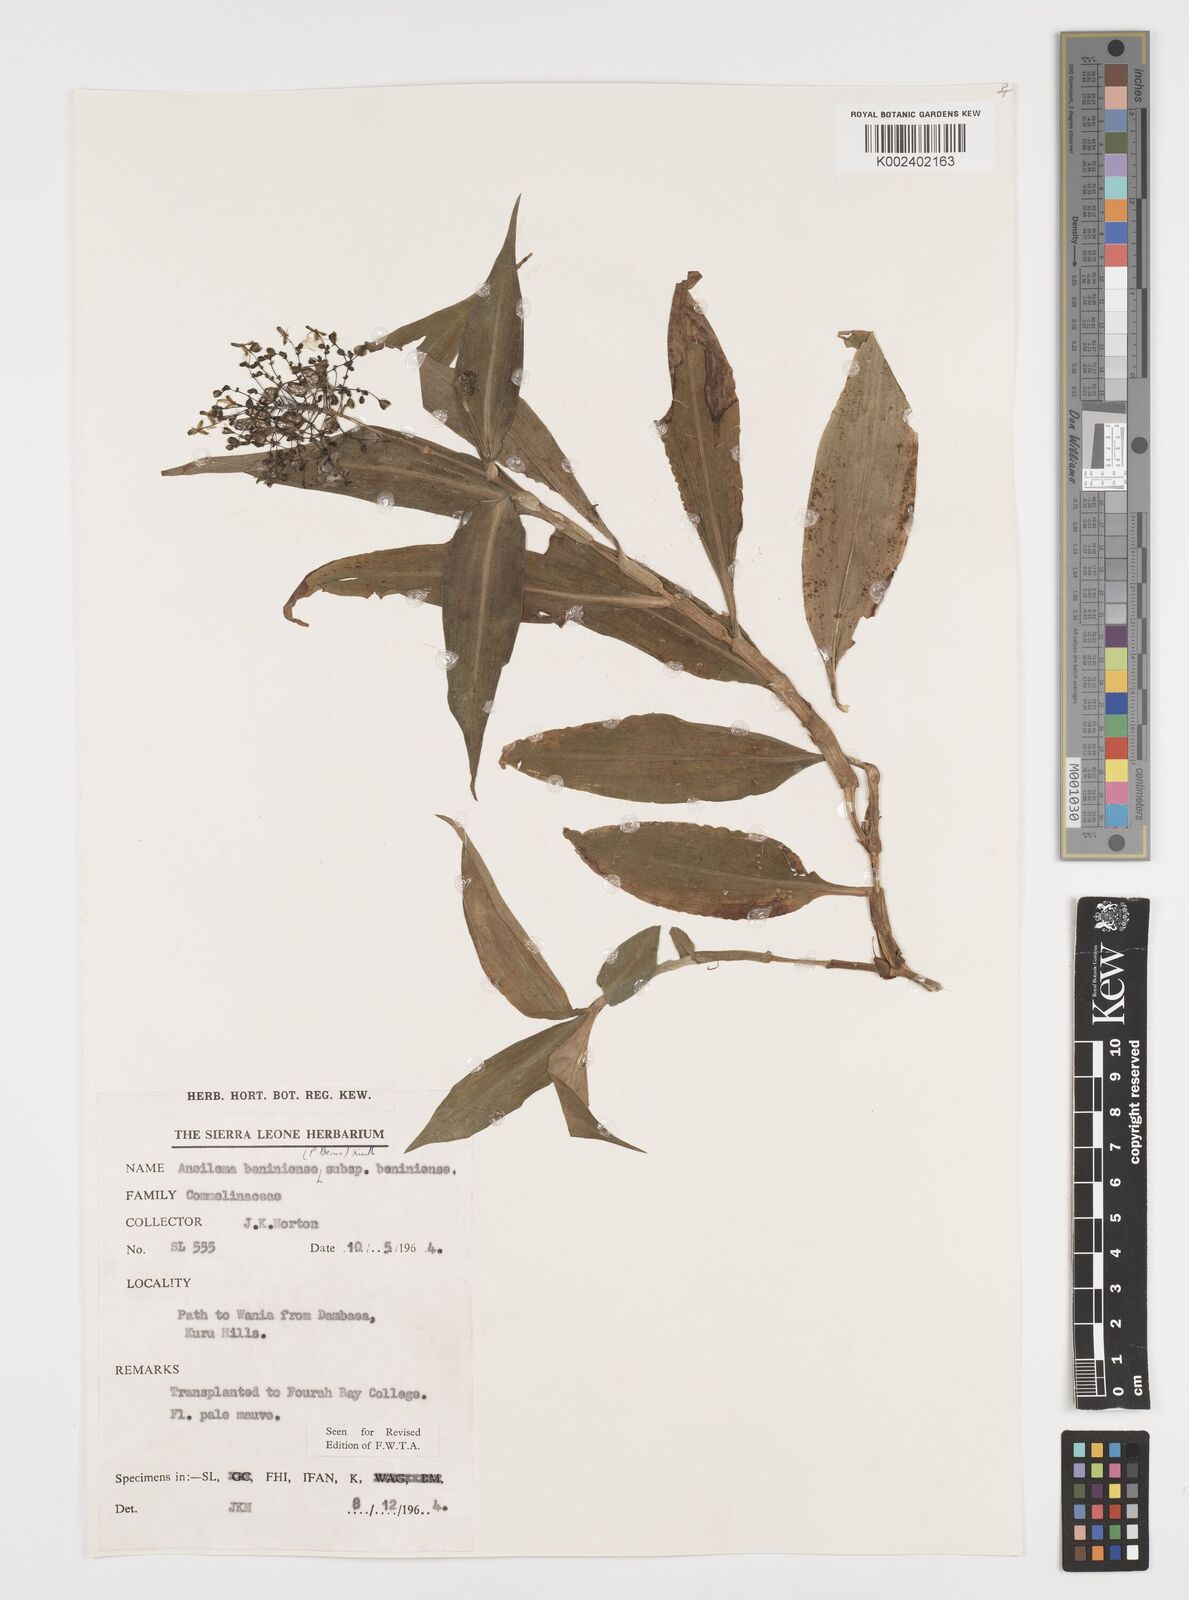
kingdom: Plantae
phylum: Tracheophyta
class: Liliopsida
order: Commelinales
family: Commelinaceae
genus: Aneilema
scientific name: Aneilema beniniense
